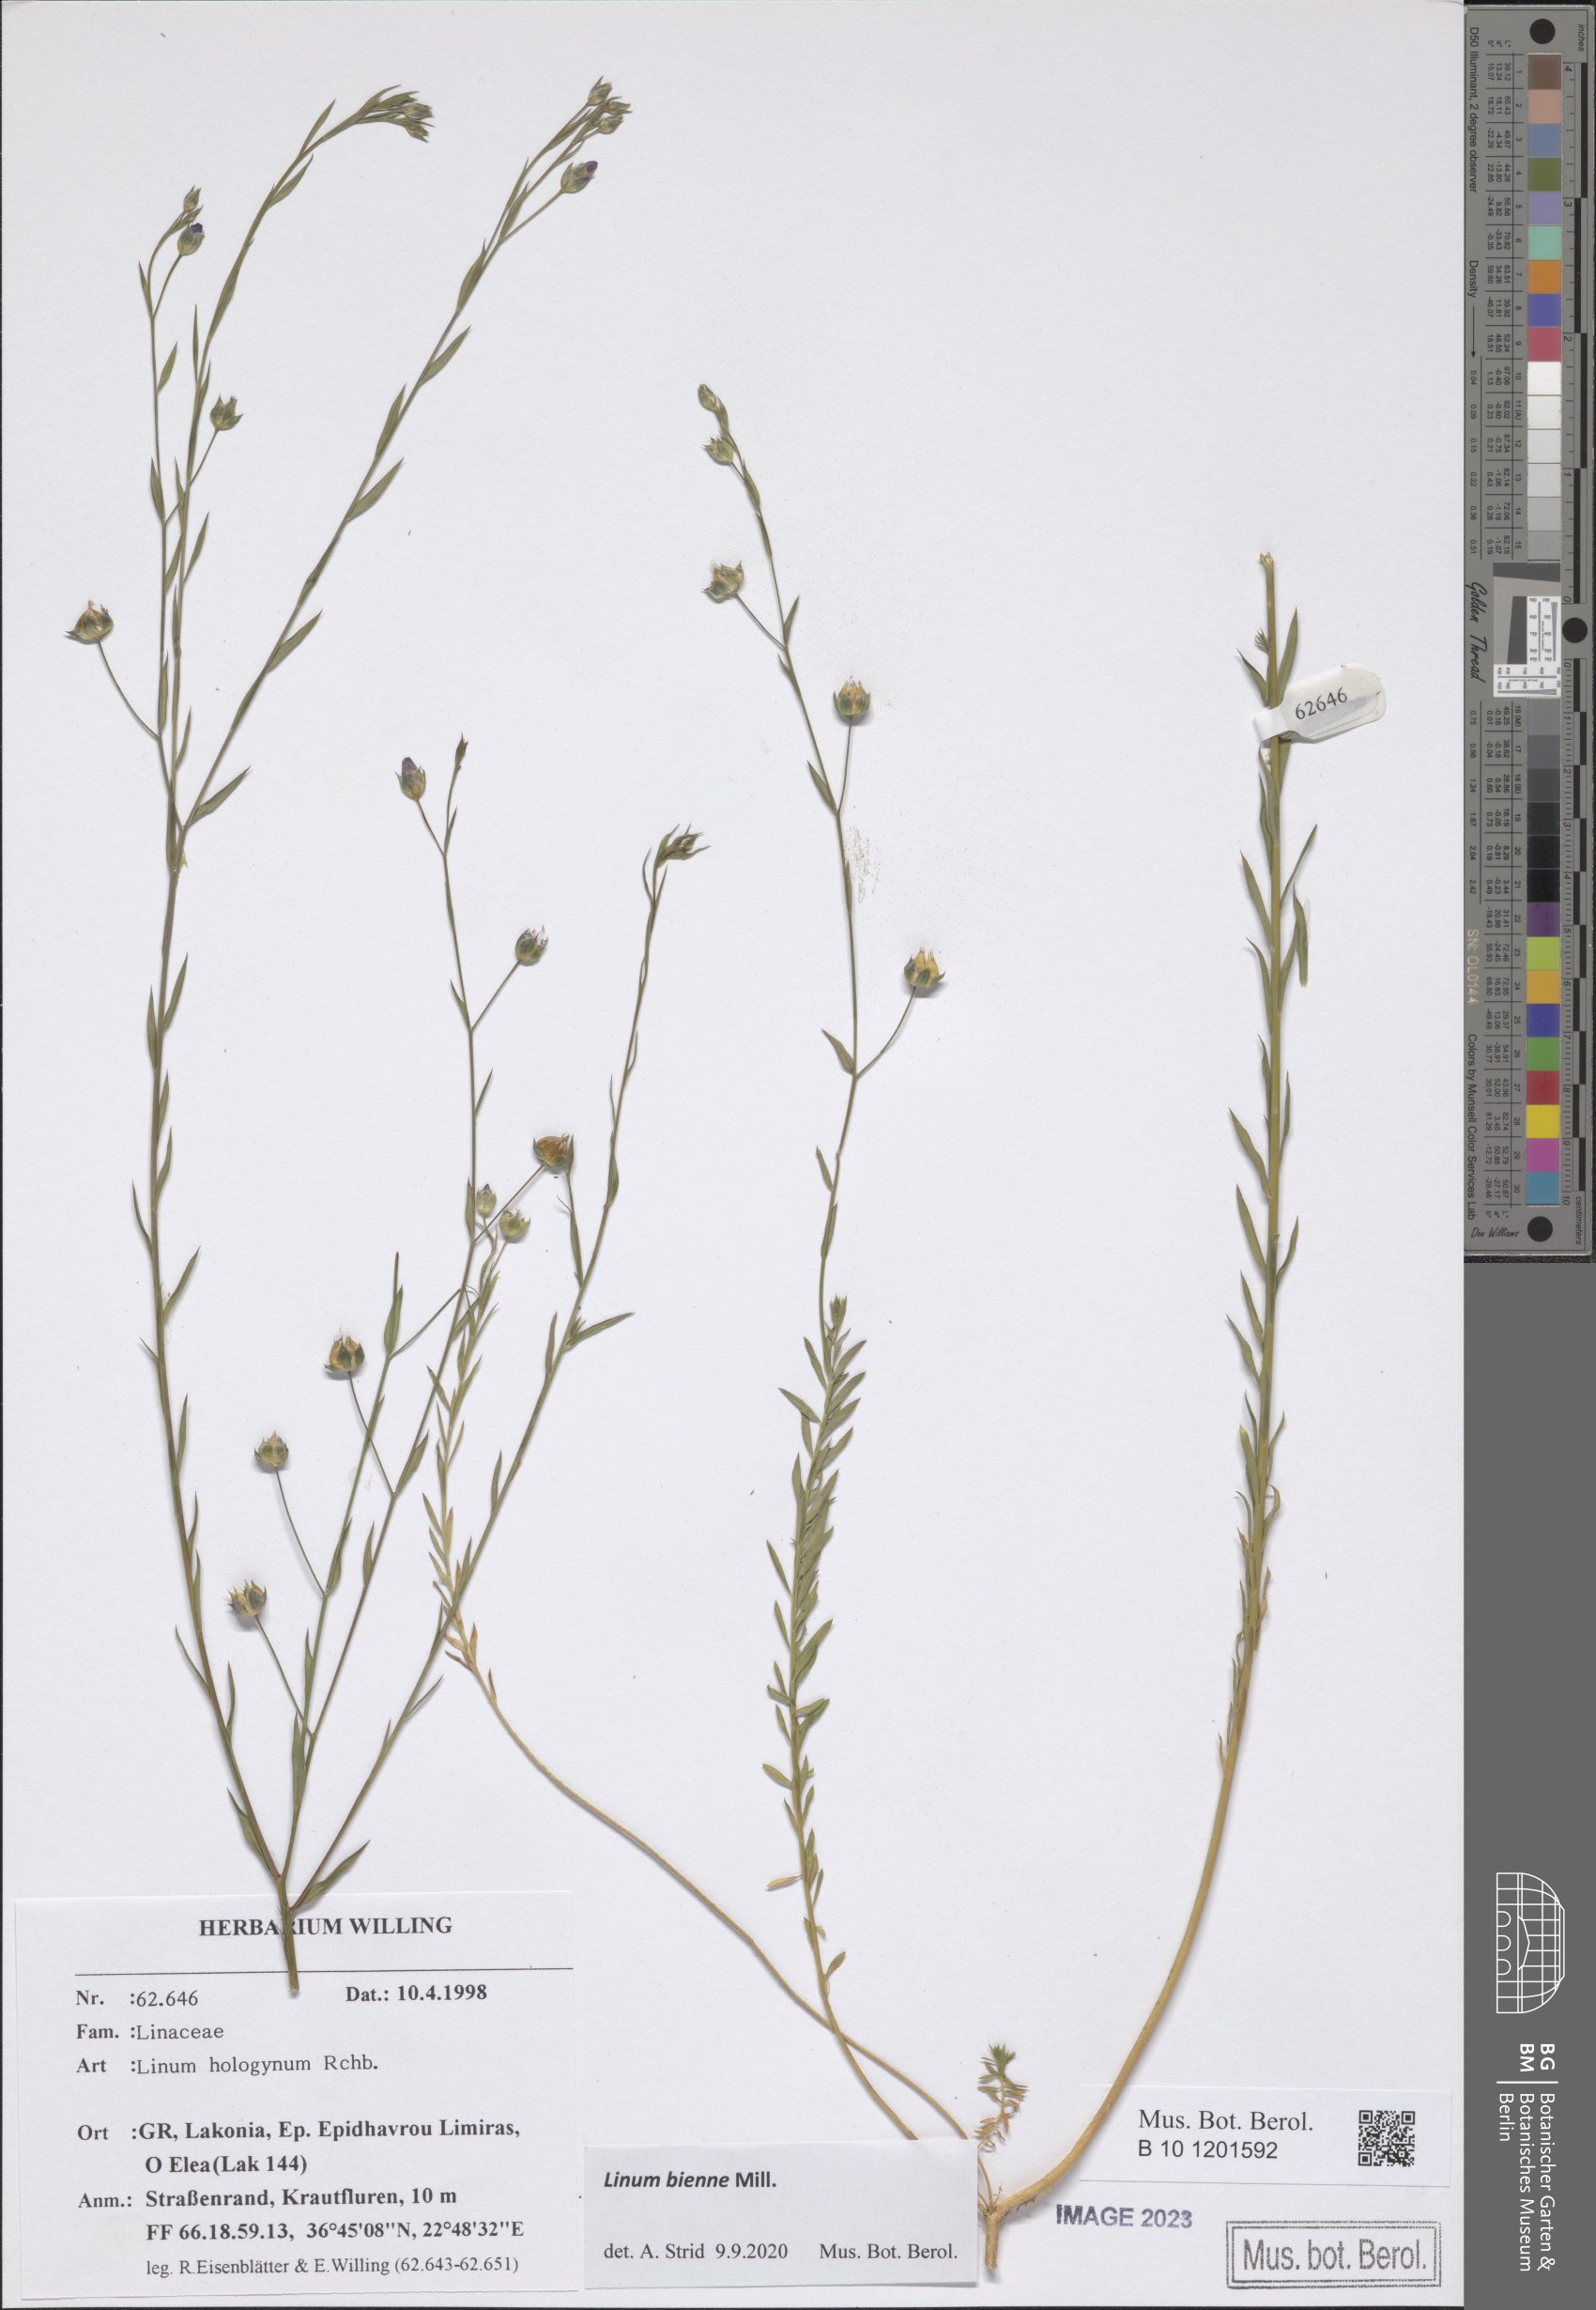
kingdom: Plantae
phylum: Tracheophyta
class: Magnoliopsida
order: Malpighiales
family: Linaceae
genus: Linum
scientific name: Linum bienne
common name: Pale flax
